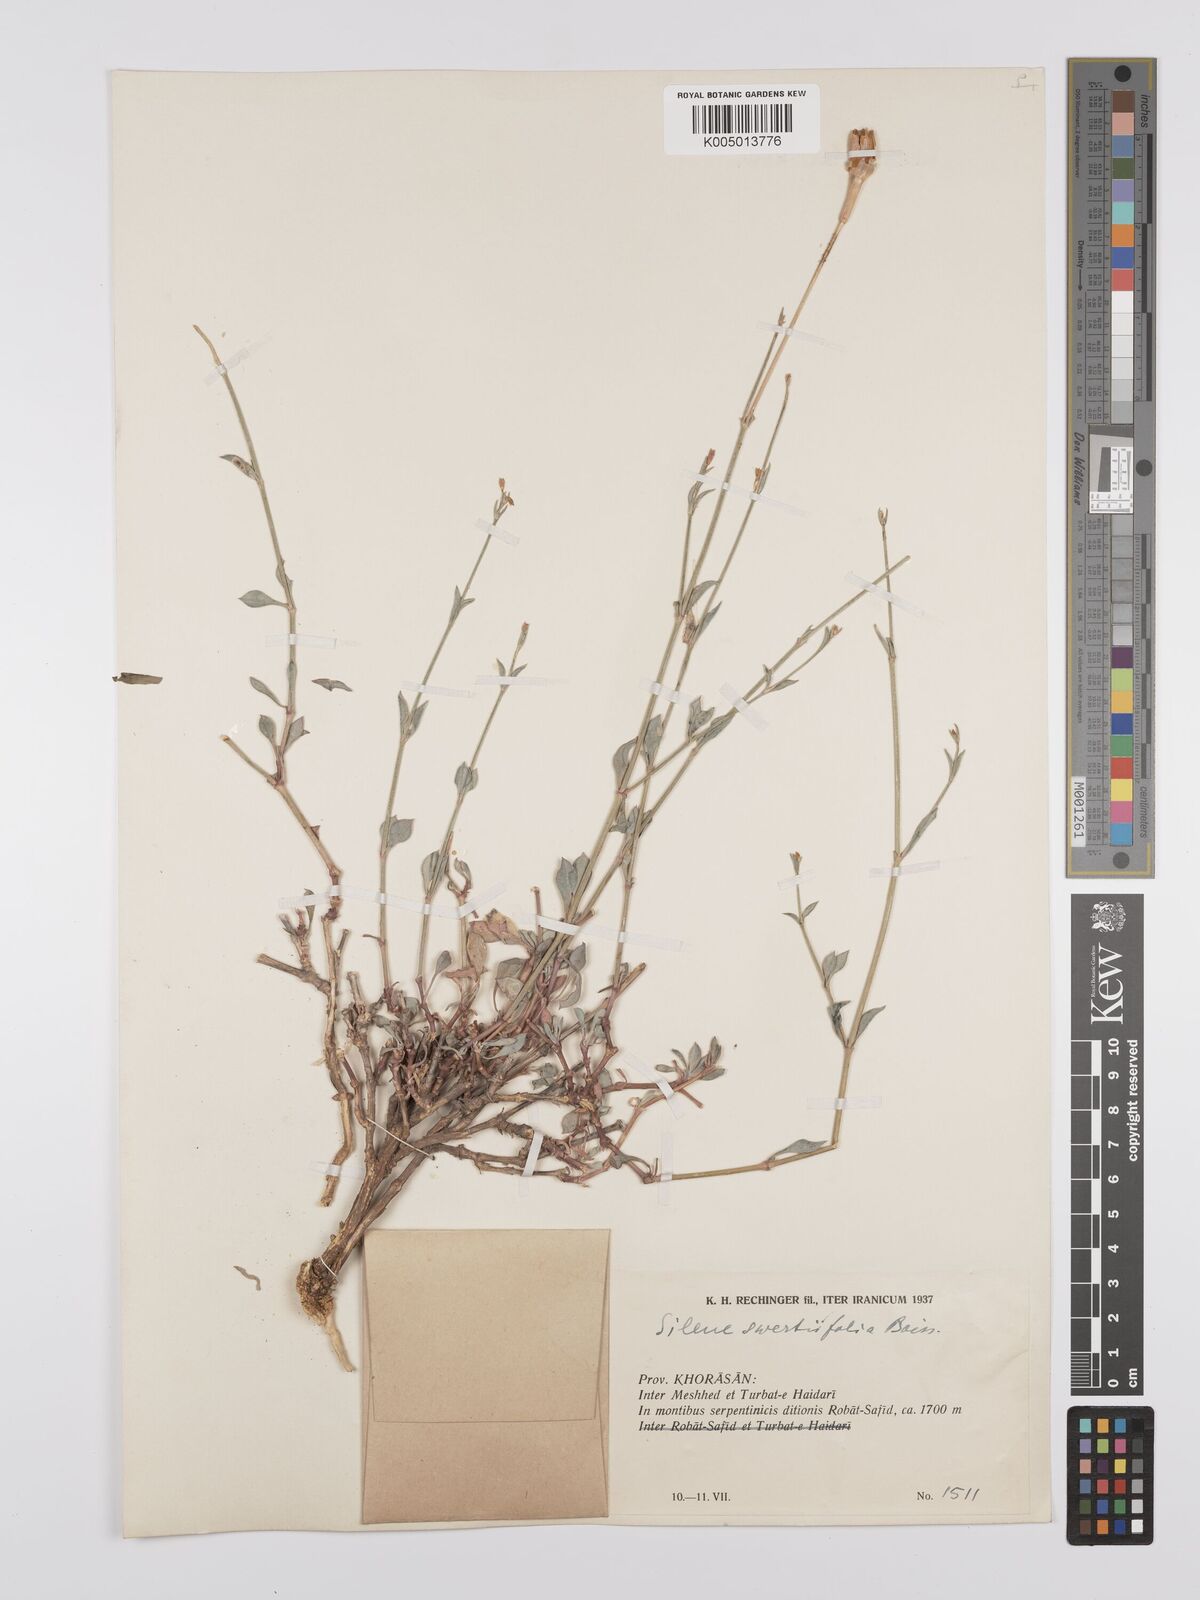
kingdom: Plantae
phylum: Tracheophyta
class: Magnoliopsida
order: Caryophyllales
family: Caryophyllaceae
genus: Silene
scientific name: Silene swertiifolia
